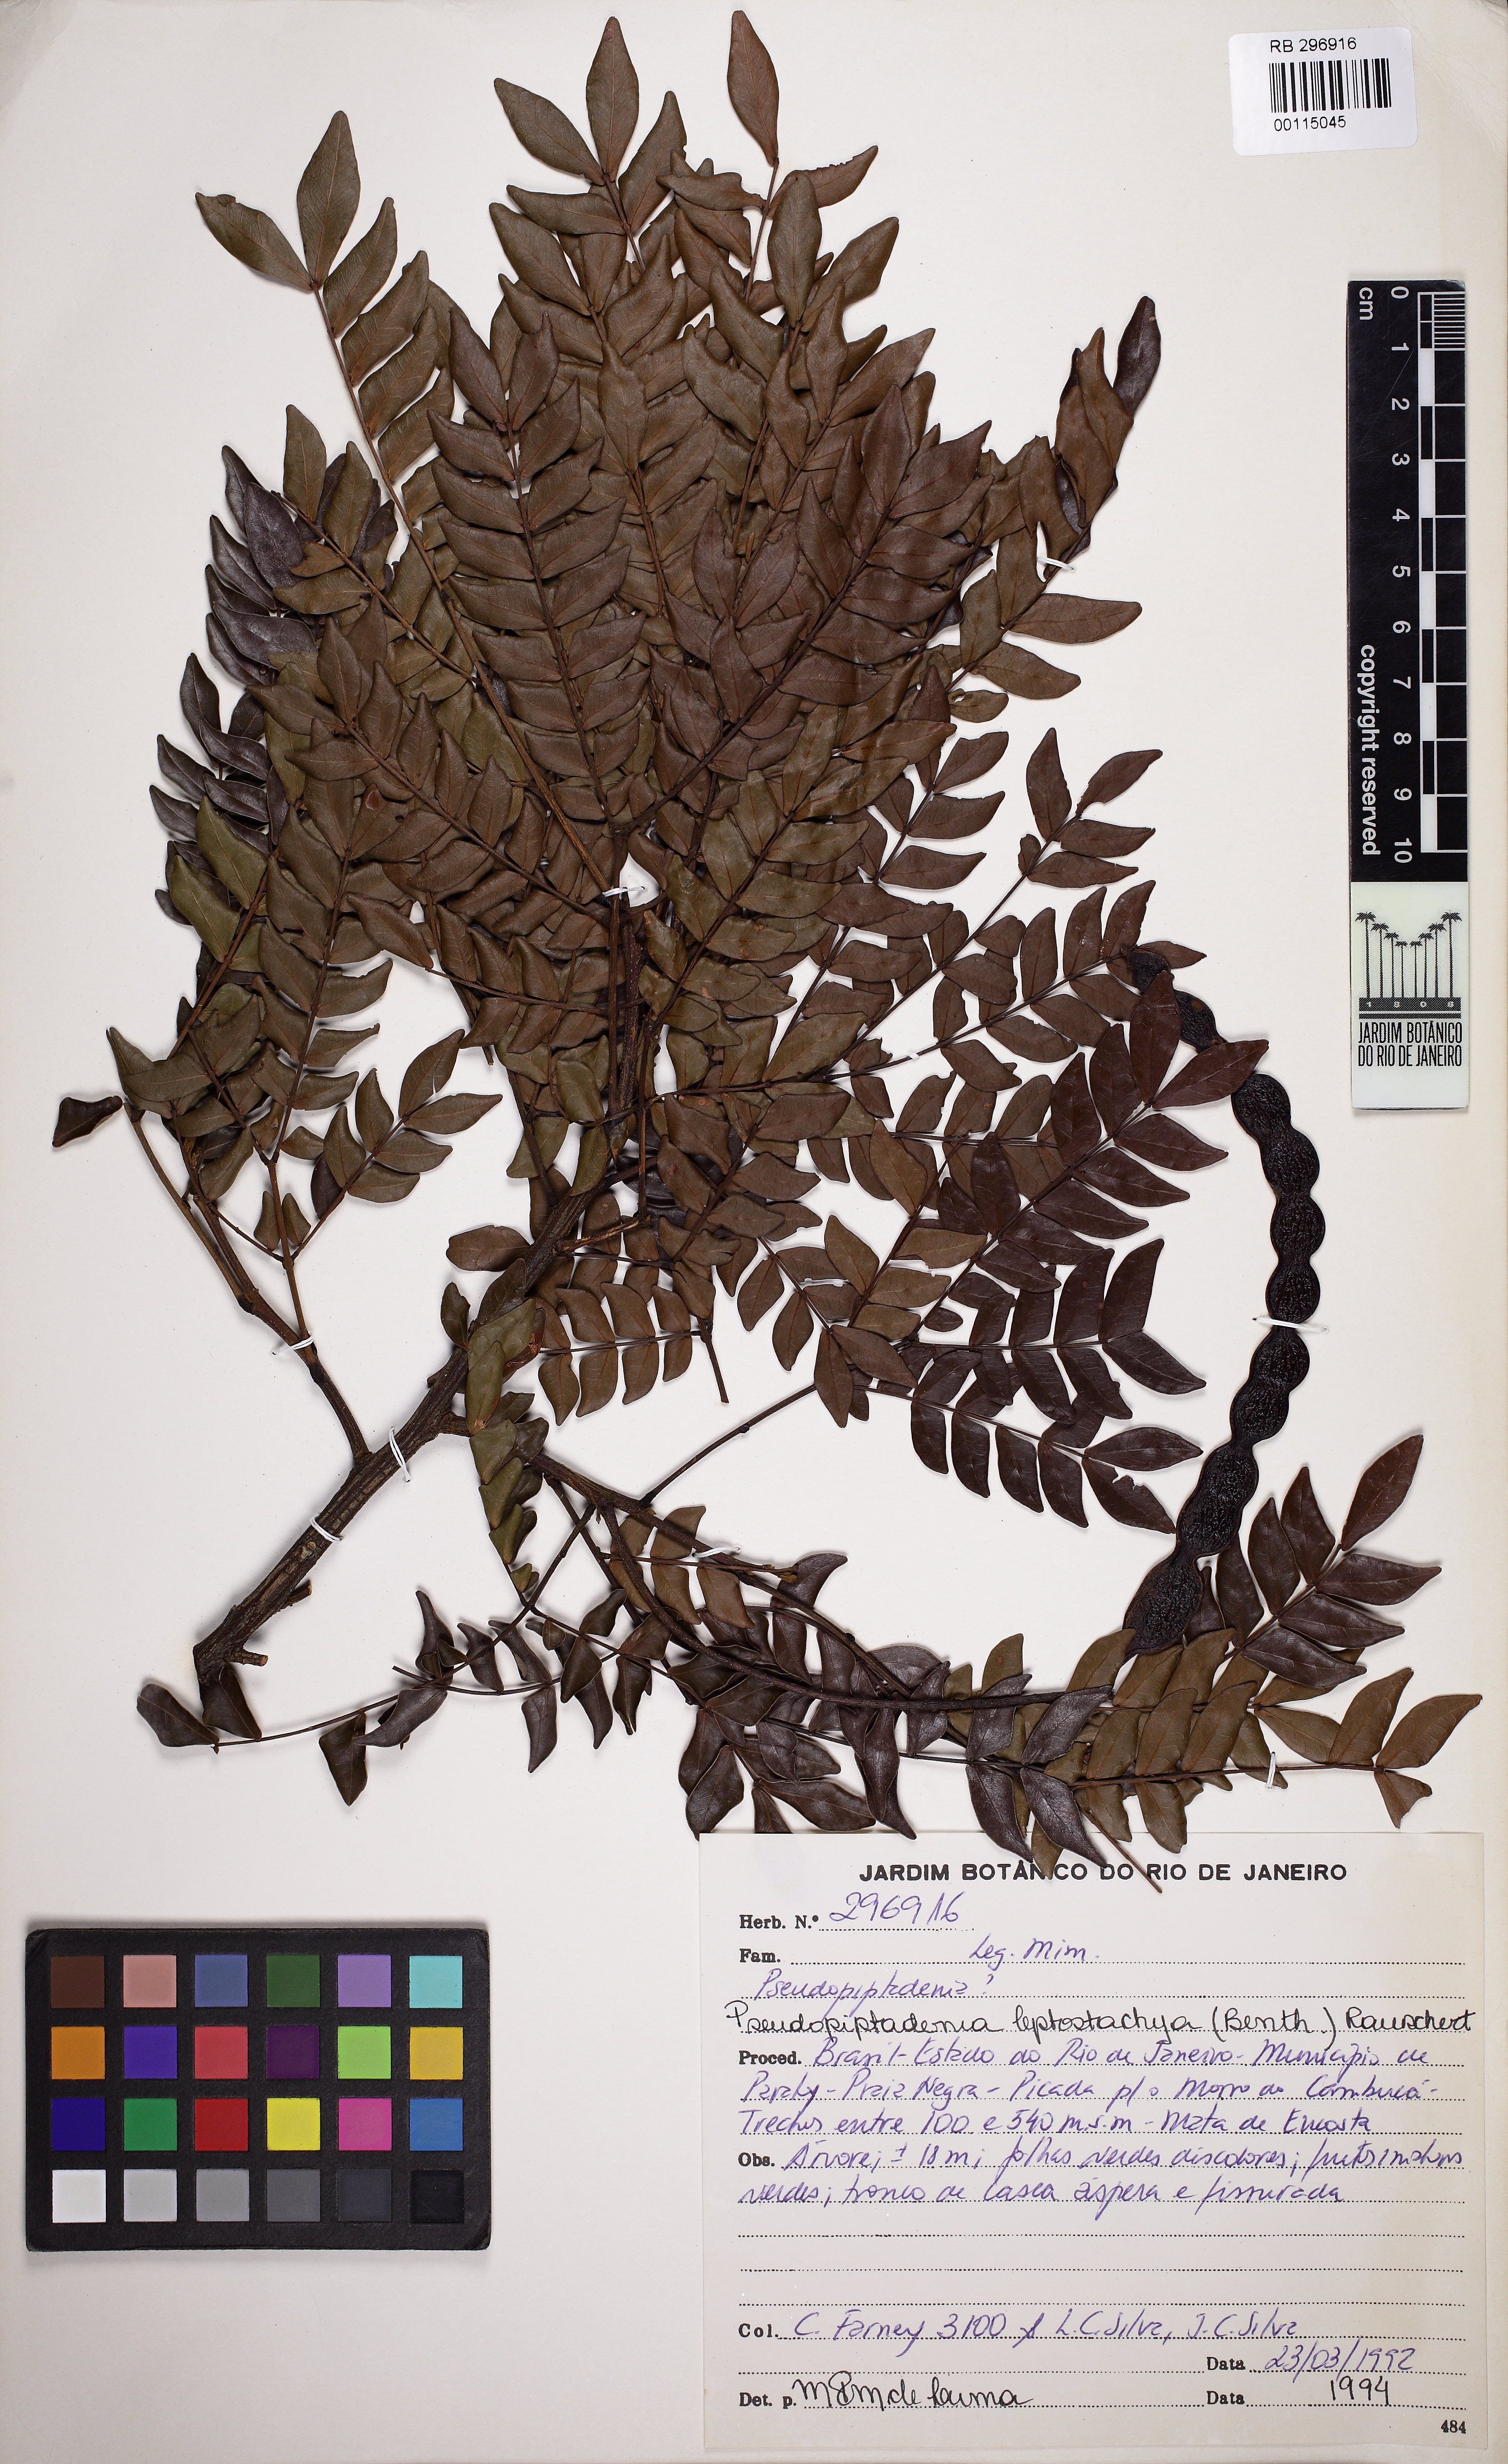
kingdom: Plantae
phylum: Tracheophyta
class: Magnoliopsida
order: Fabales
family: Fabaceae
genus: Pseudopiptadenia
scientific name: Pseudopiptadenia leptostachya
